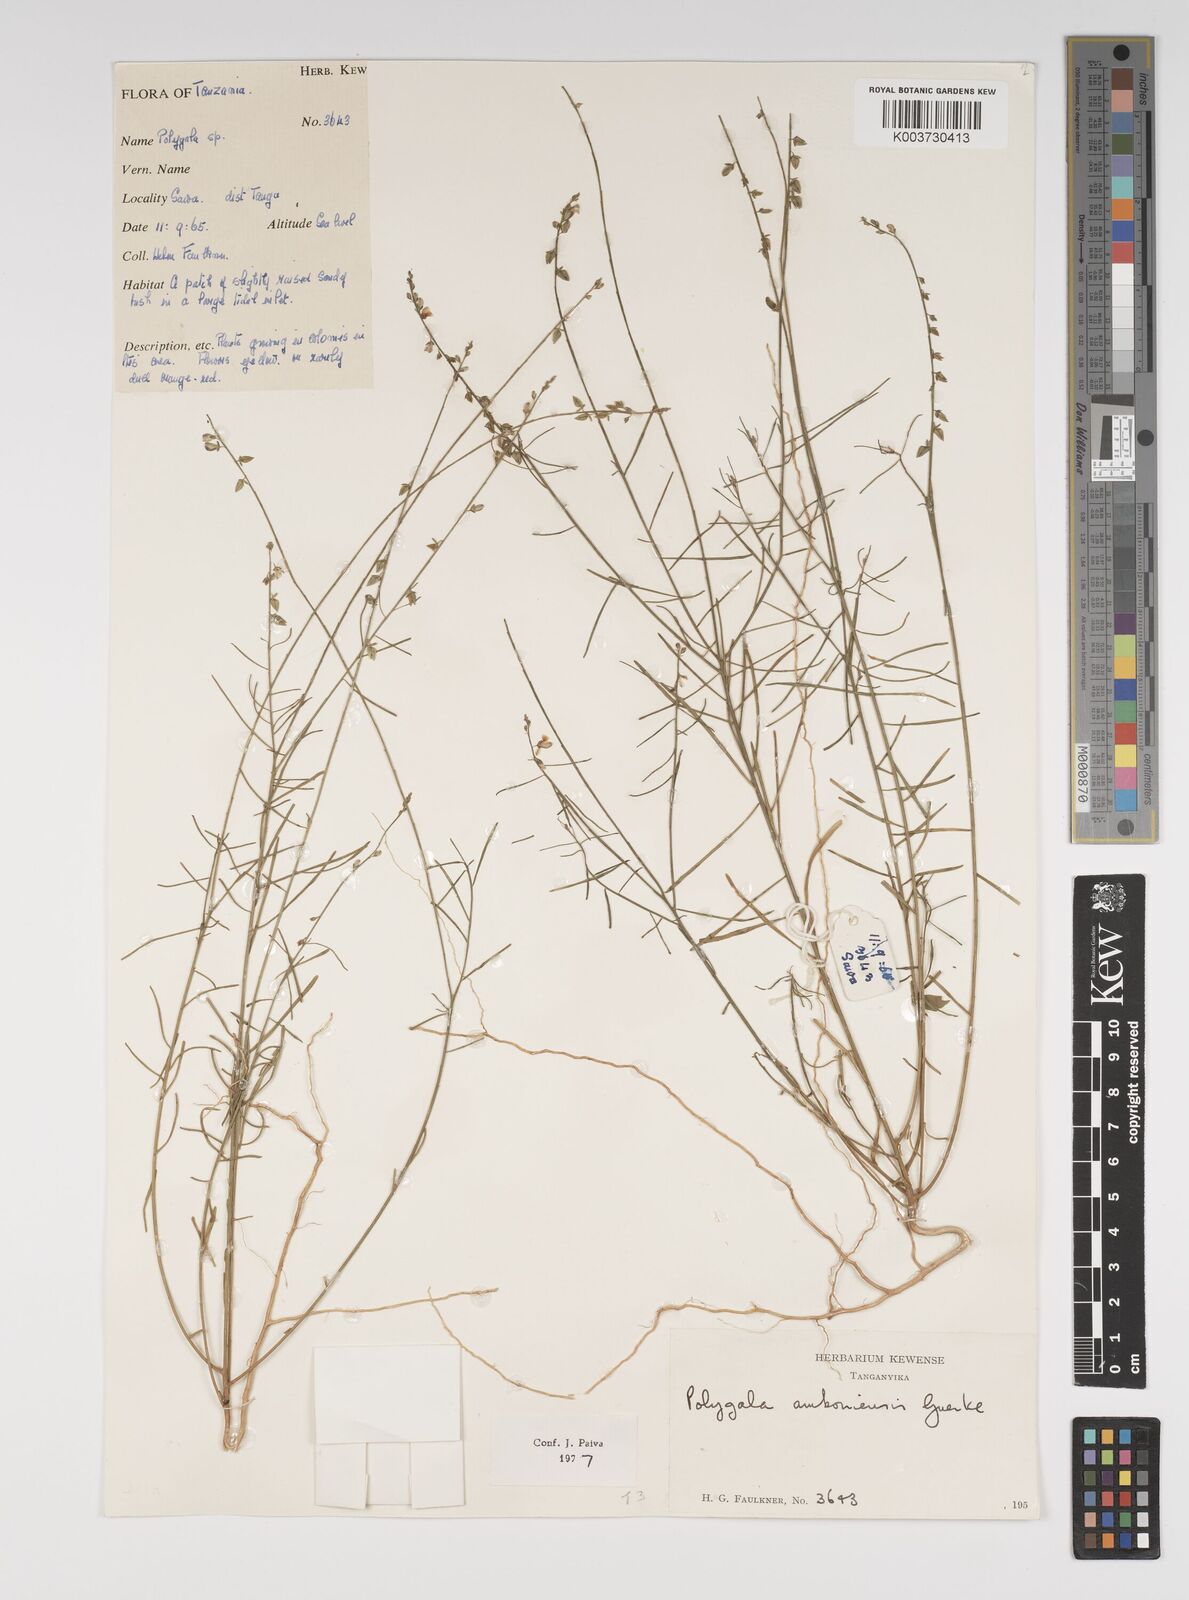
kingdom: Plantae
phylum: Tracheophyta
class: Magnoliopsida
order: Fabales
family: Polygalaceae
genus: Polygala
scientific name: Polygala amboniensis
